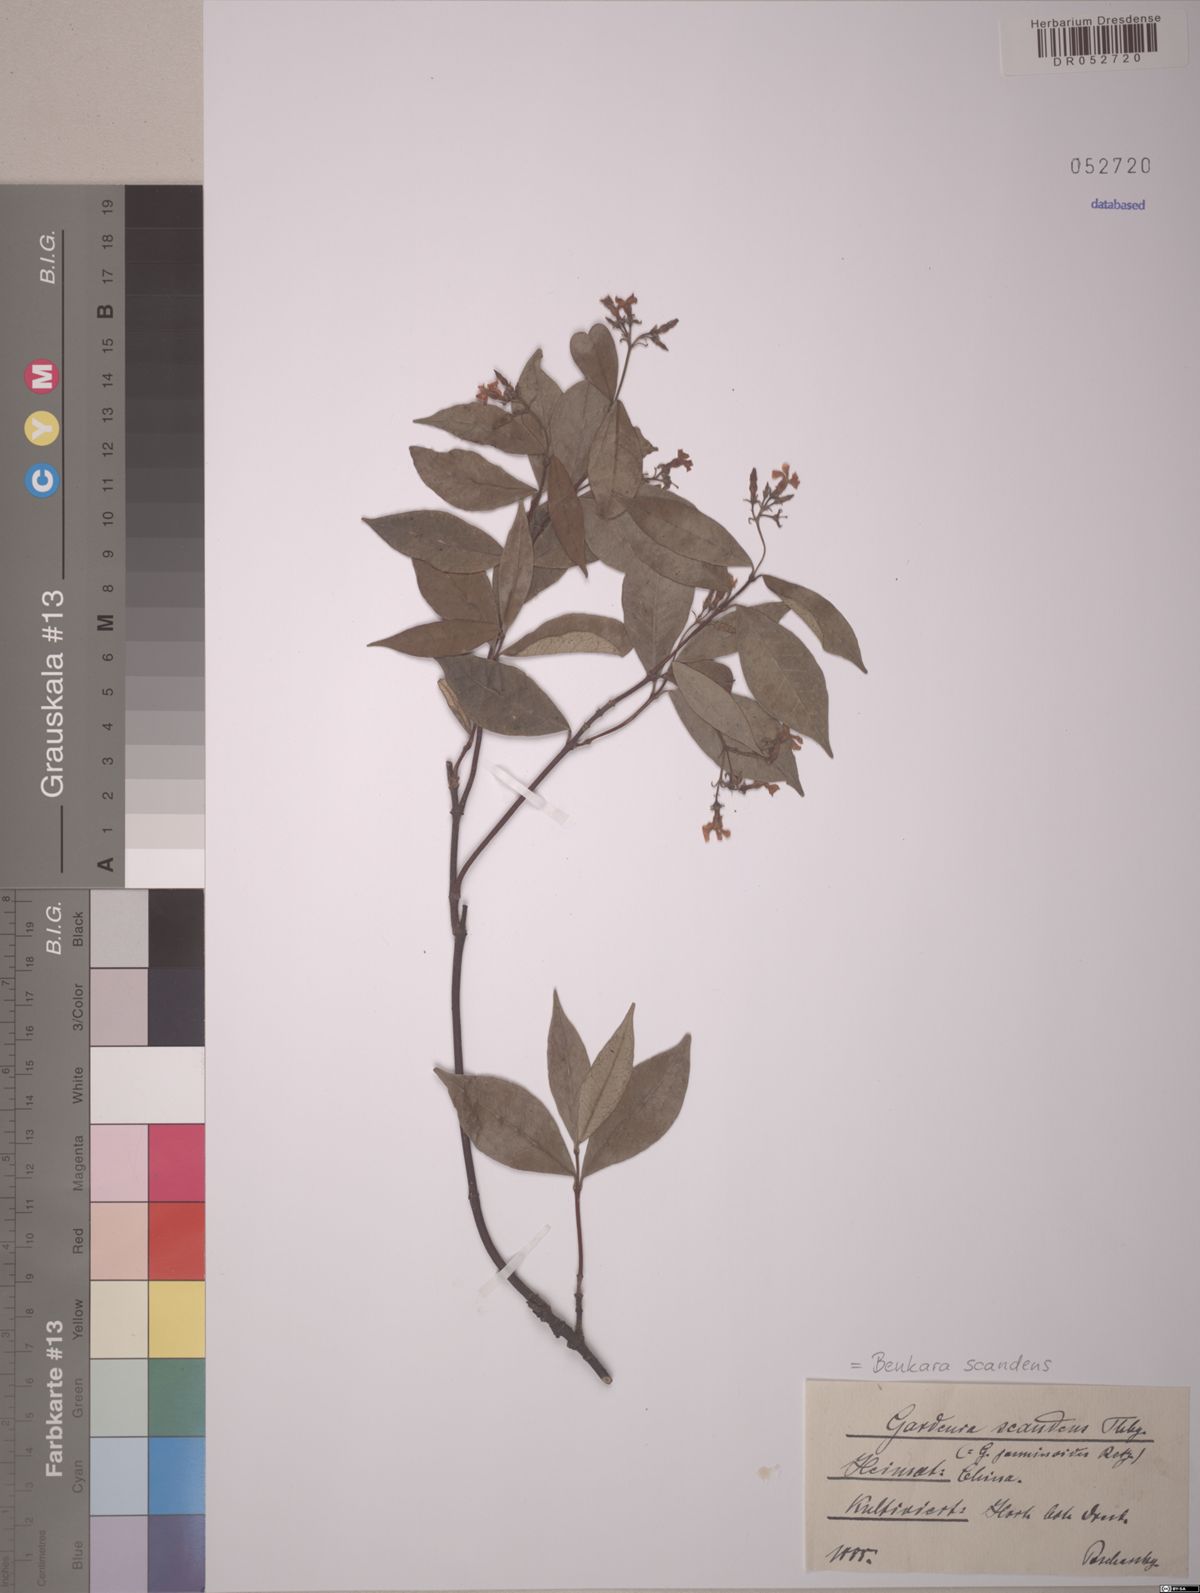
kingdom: Plantae
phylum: Tracheophyta
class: Magnoliopsida
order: Gentianales
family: Rubiaceae
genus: Benkara
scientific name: Benkara scandens
